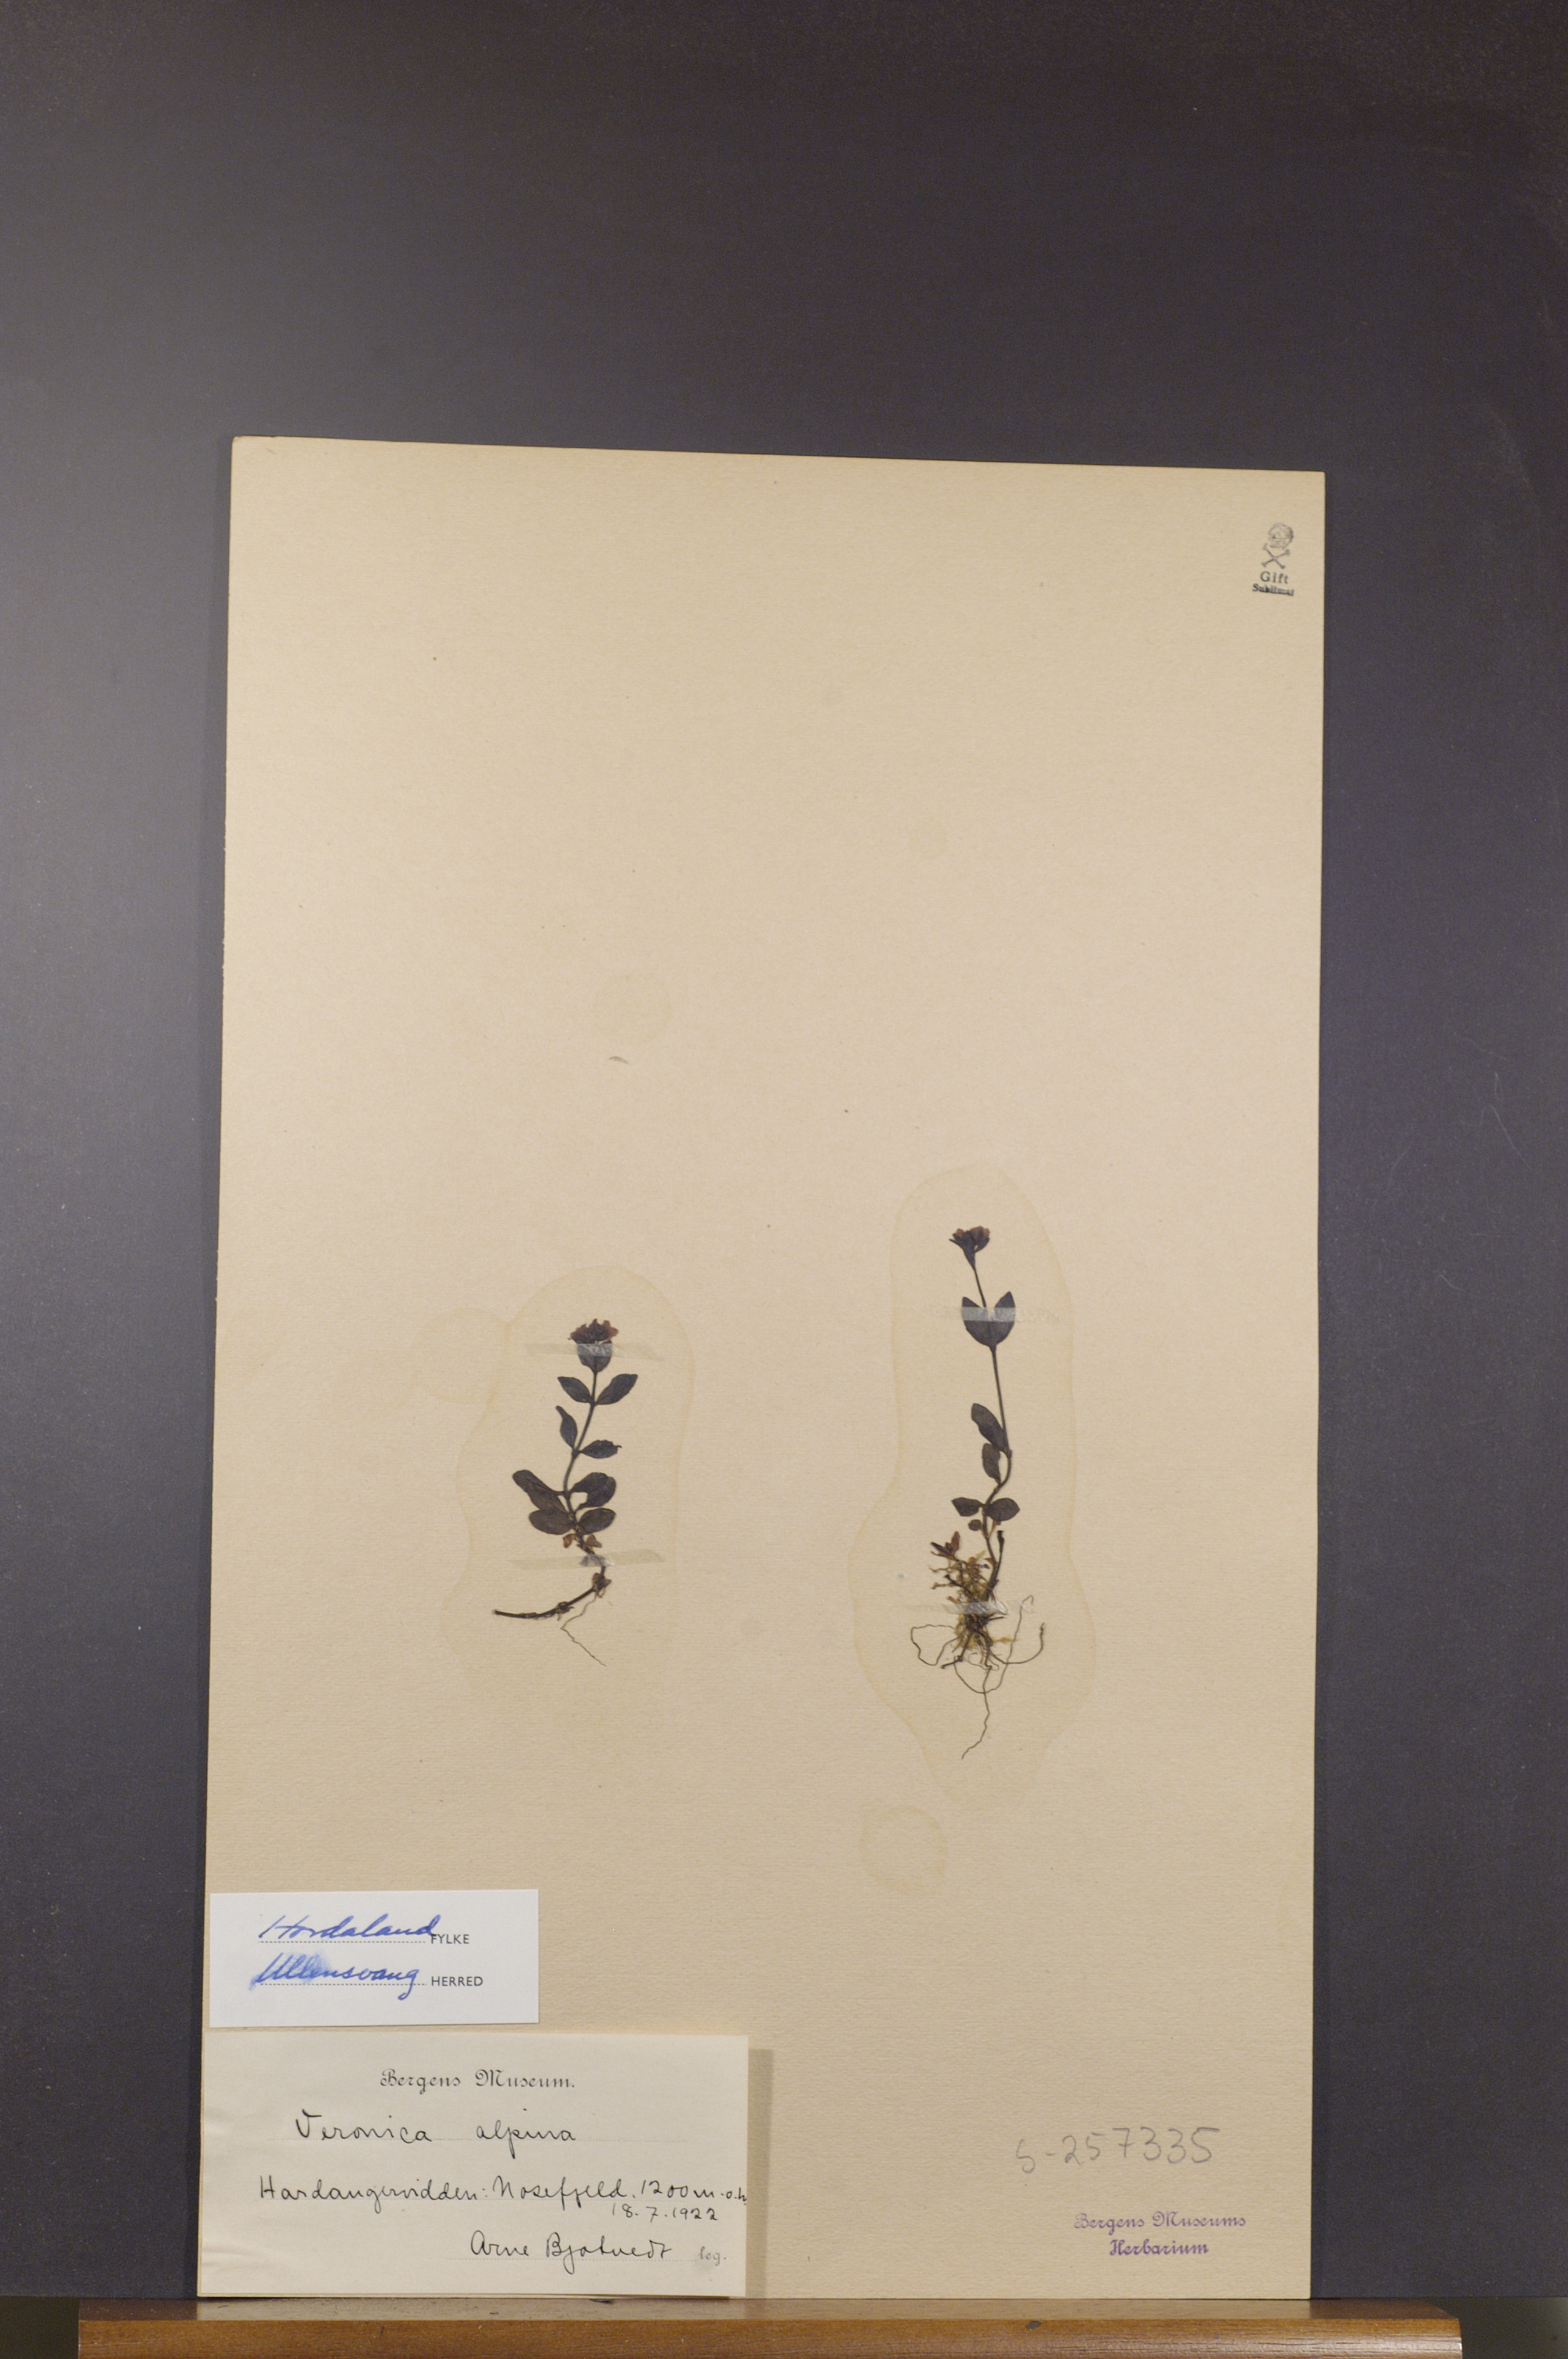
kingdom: Plantae
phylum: Tracheophyta
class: Magnoliopsida
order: Lamiales
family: Plantaginaceae
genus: Veronica
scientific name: Veronica alpina
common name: Alpine speedwell
